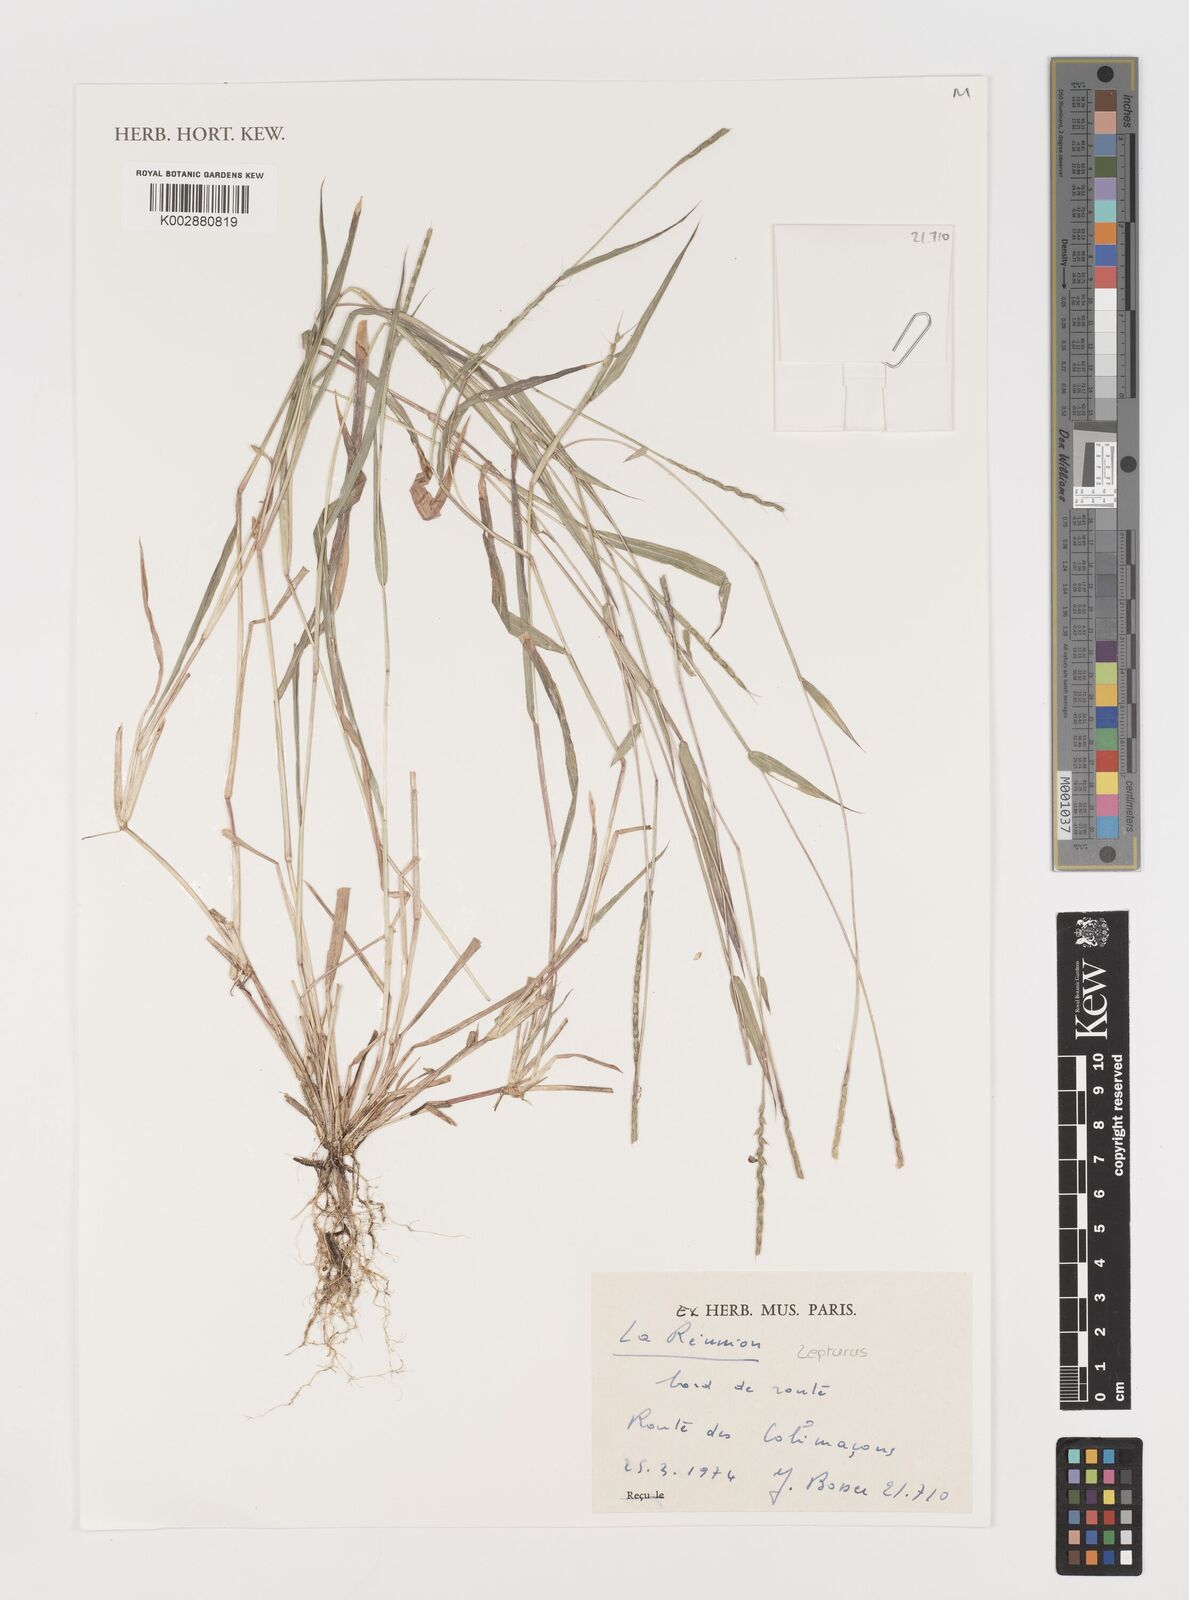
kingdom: Plantae
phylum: Tracheophyta
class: Liliopsida
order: Poales
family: Poaceae
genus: Lepturus
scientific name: Lepturus
